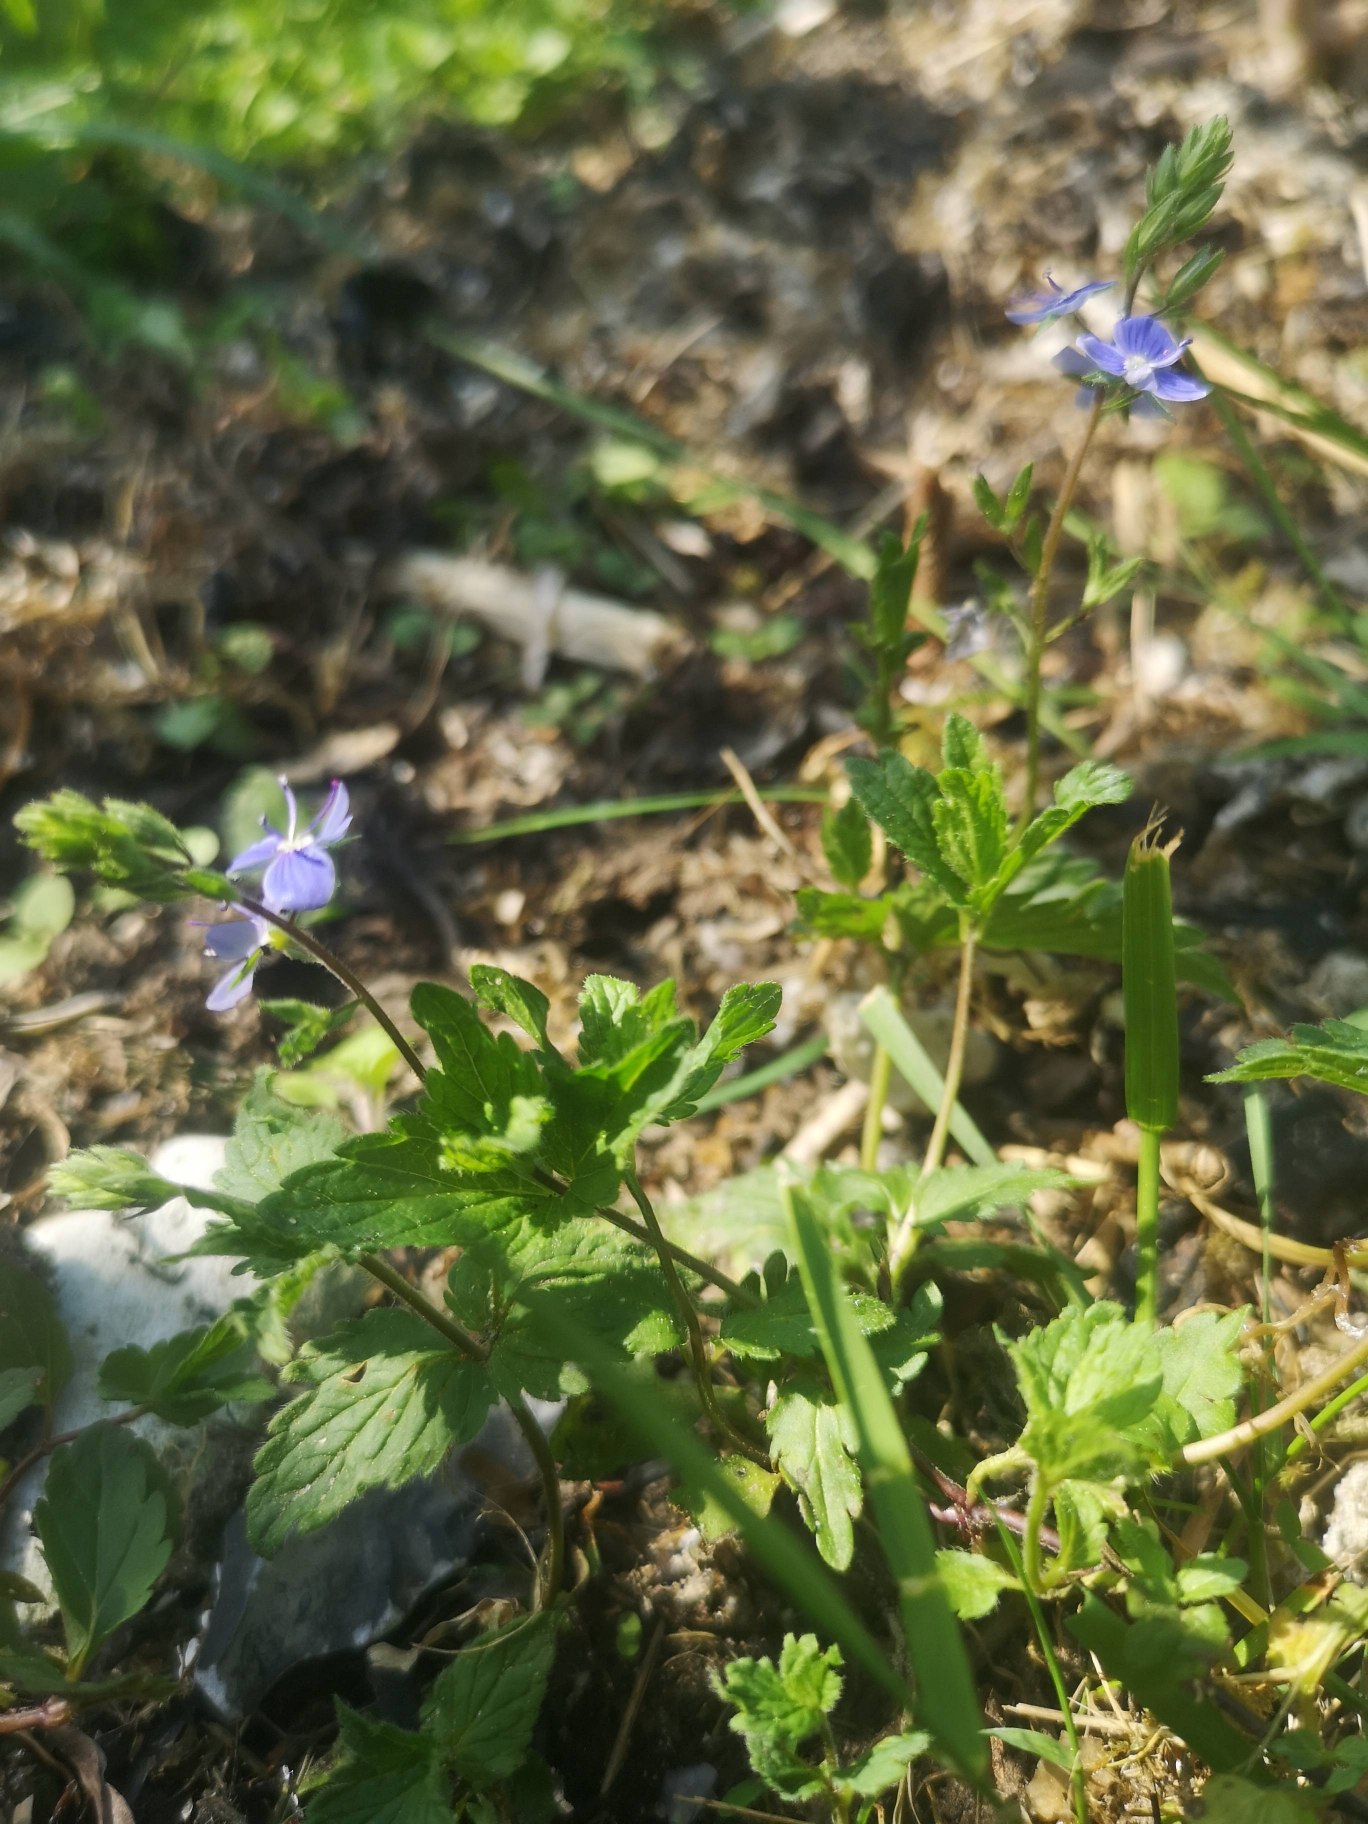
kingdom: Plantae
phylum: Tracheophyta
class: Magnoliopsida
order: Lamiales
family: Plantaginaceae
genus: Veronica
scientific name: Veronica chamaedrys
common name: Tveskægget ærenpris
